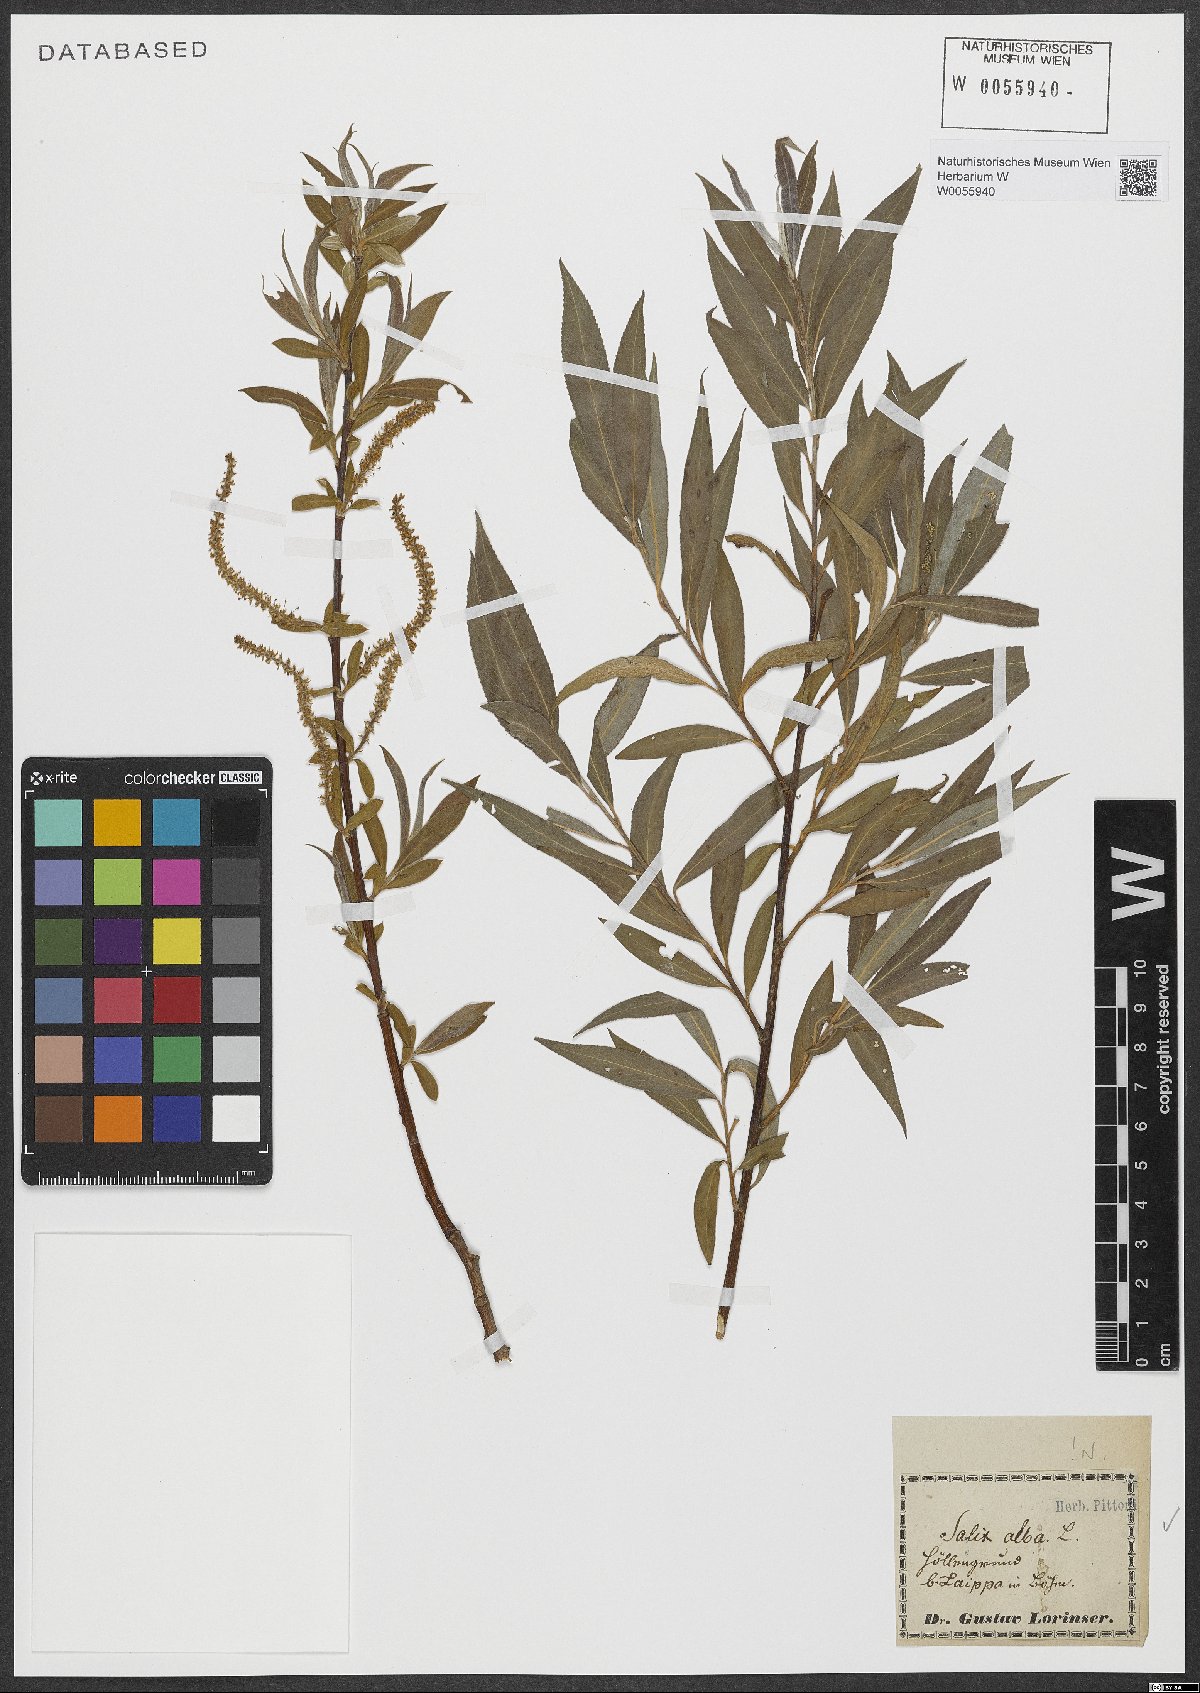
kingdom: Plantae
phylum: Tracheophyta
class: Magnoliopsida
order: Malpighiales
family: Salicaceae
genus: Salix
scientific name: Salix alba
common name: White willow
